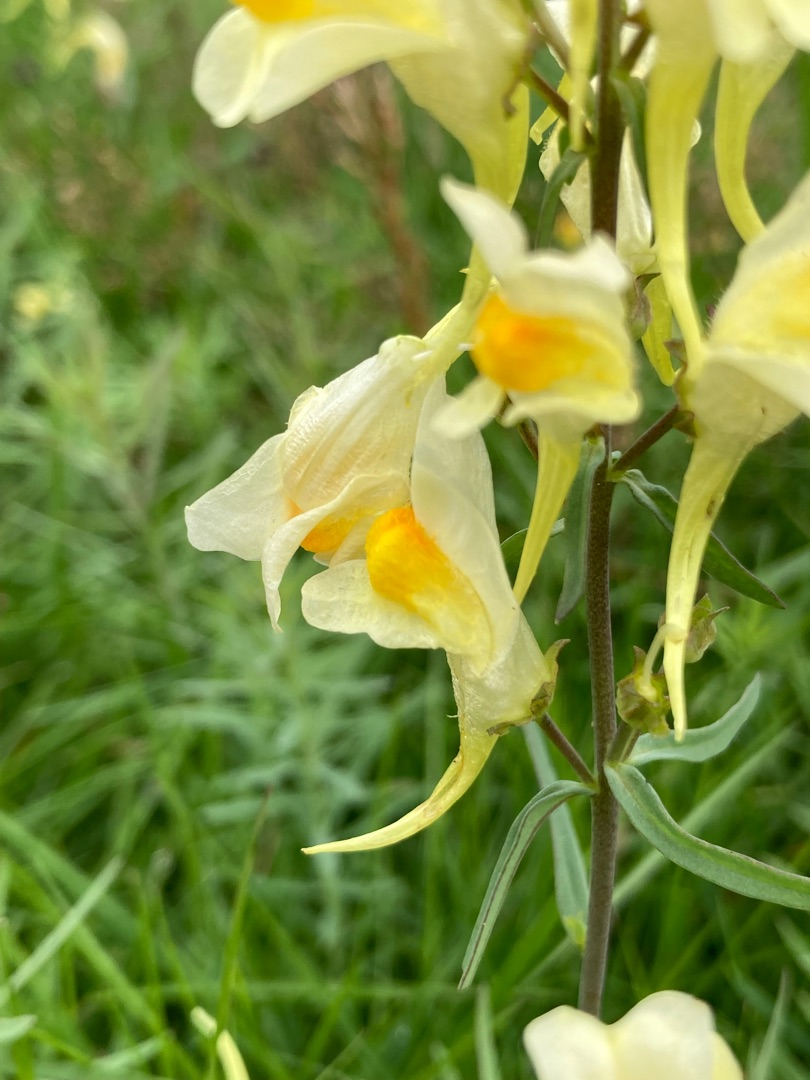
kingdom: Plantae
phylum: Tracheophyta
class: Magnoliopsida
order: Lamiales
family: Plantaginaceae
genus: Linaria
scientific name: Linaria vulgaris
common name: Almindelig torskemund
